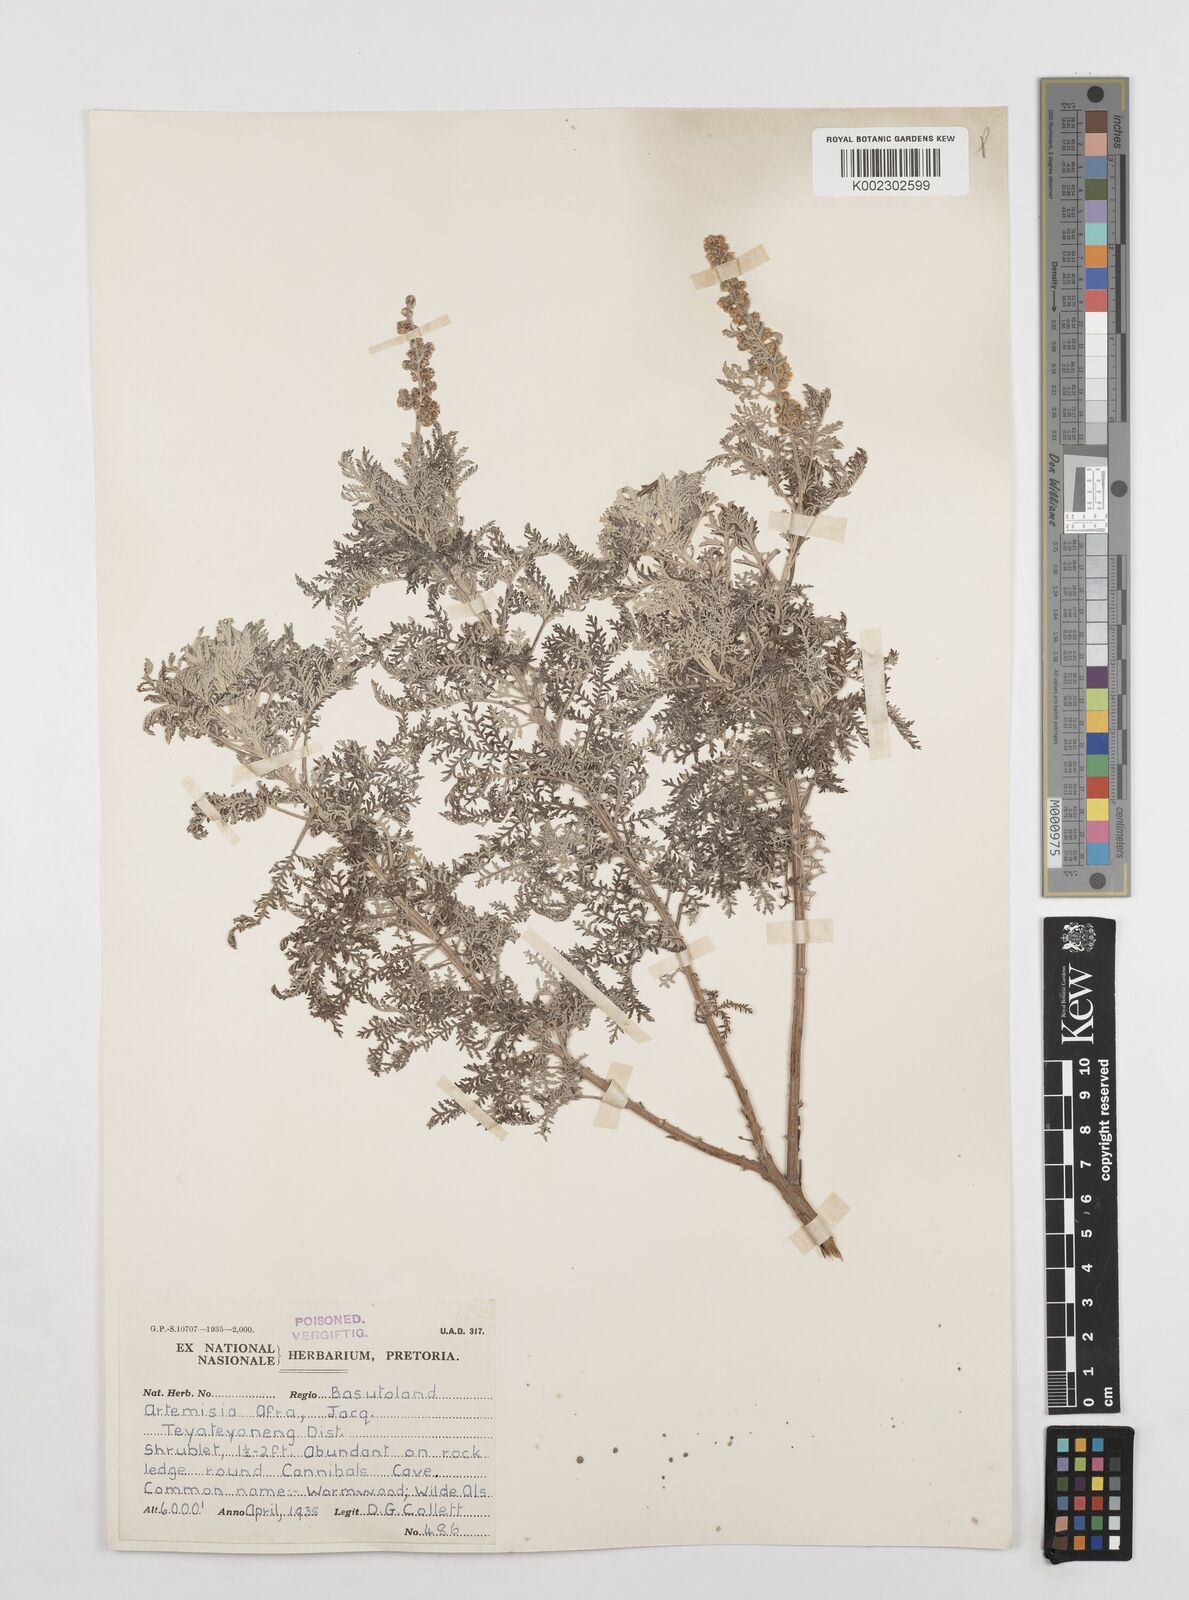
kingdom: Plantae
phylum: Tracheophyta
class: Magnoliopsida
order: Asterales
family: Asteraceae
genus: Artemisia
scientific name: Artemisia afra
